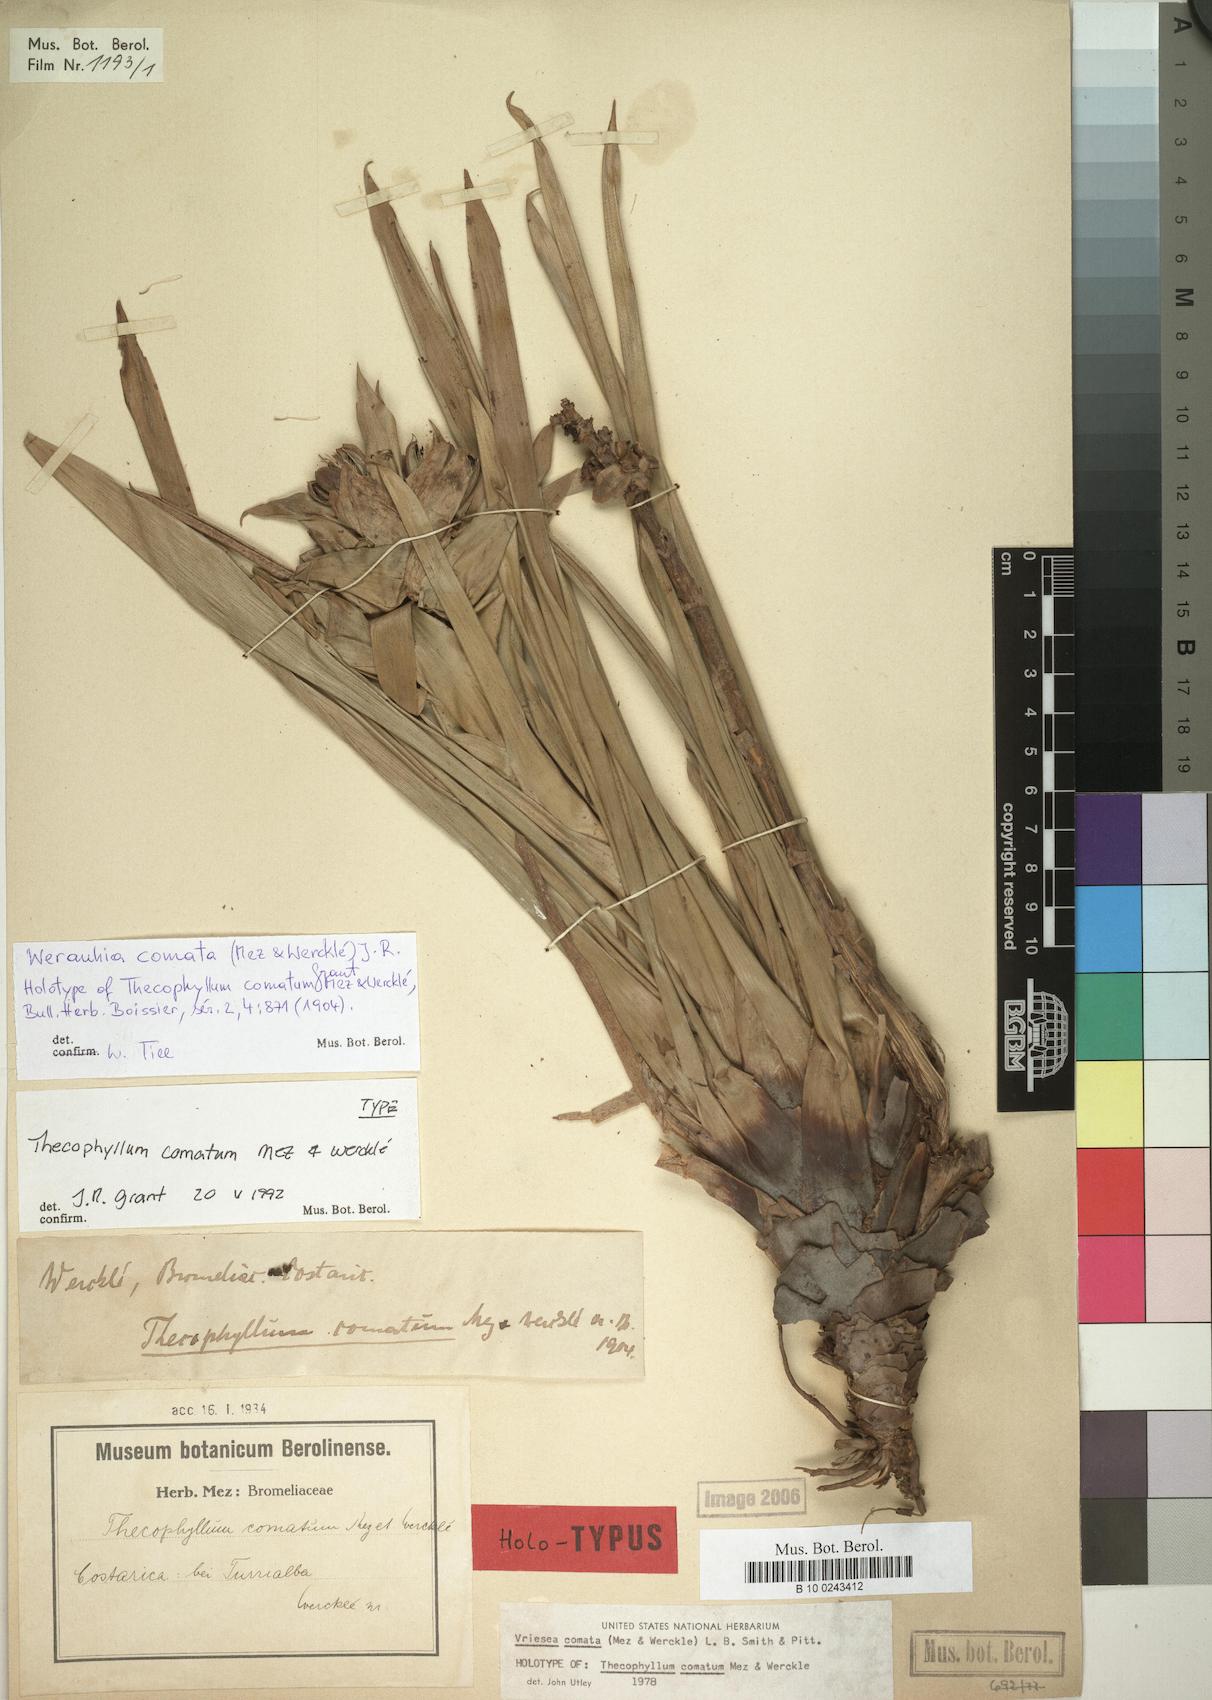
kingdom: Plantae
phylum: Tracheophyta
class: Liliopsida
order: Poales
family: Bromeliaceae
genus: Werauhia
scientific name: Werauhia comata
